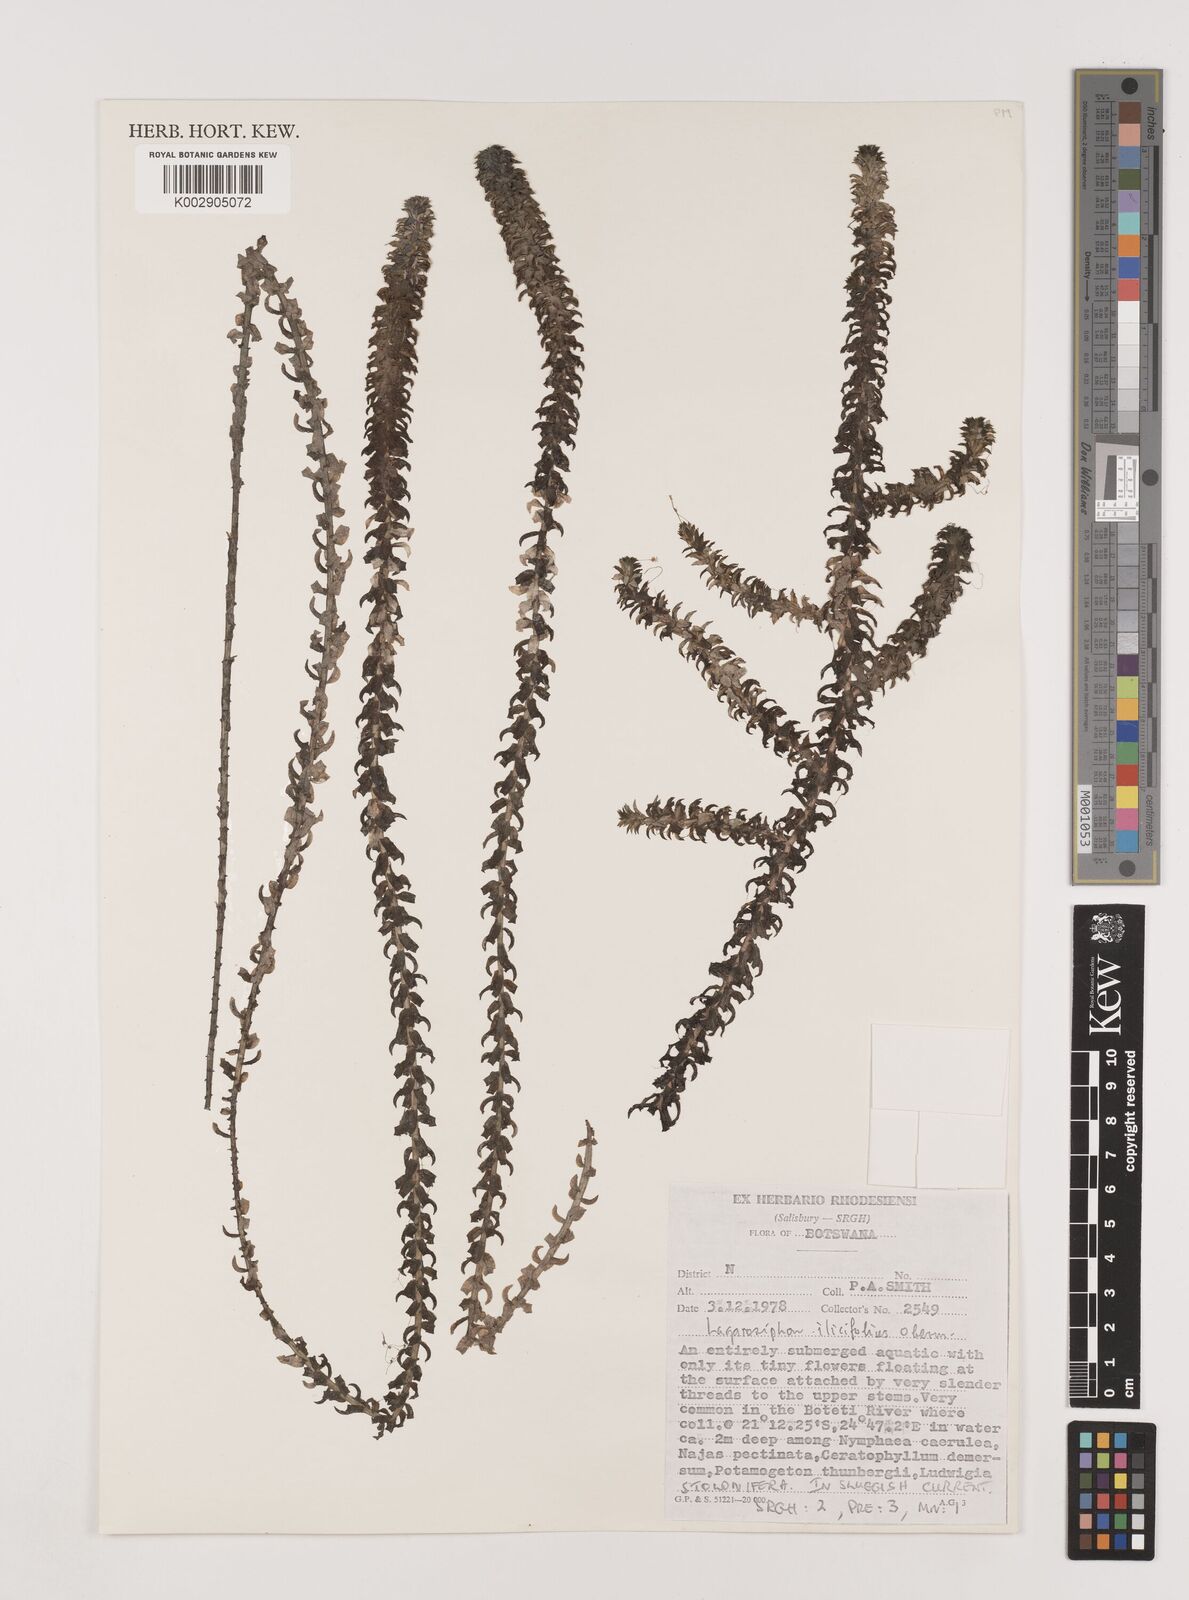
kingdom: Plantae
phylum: Tracheophyta
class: Liliopsida
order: Alismatales
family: Hydrocharitaceae
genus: Lagarosiphon
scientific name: Lagarosiphon ilicifolius
